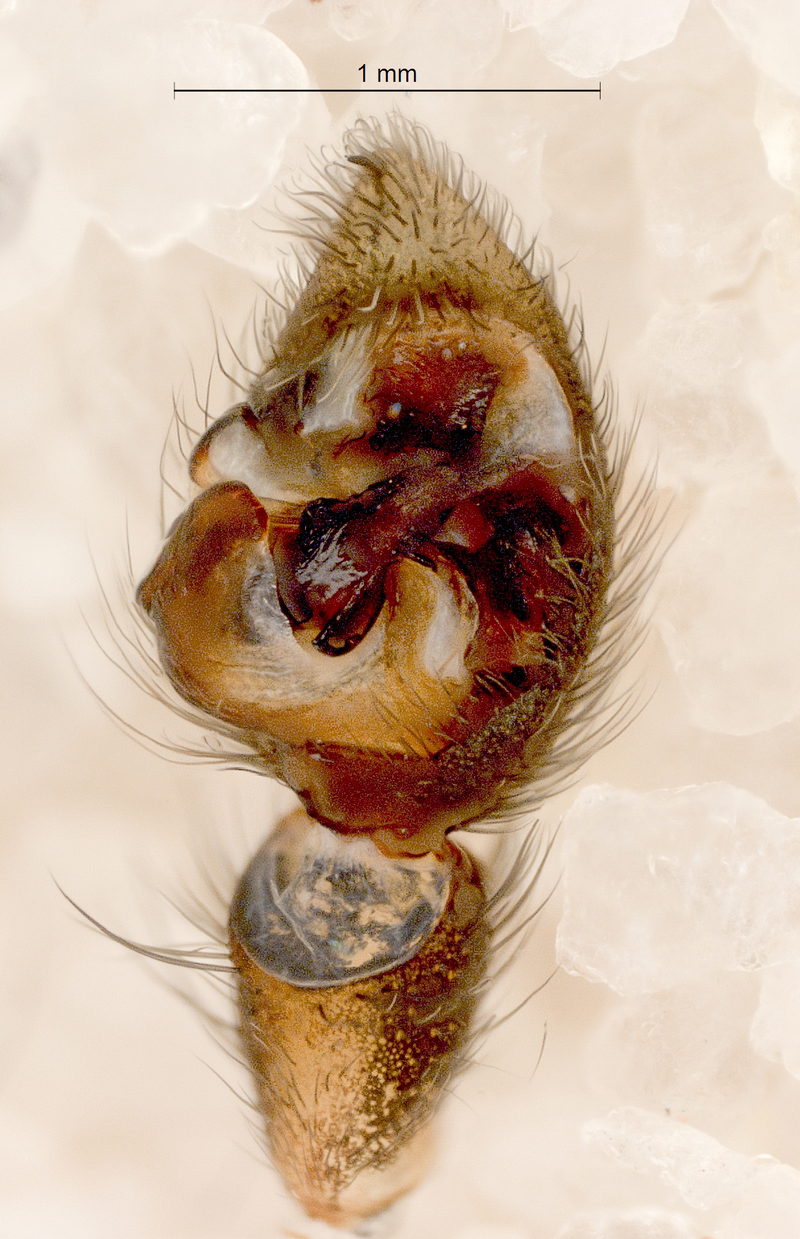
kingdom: Animalia
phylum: Arthropoda
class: Arachnida
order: Araneae
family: Lycosidae
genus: Pardosa
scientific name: Pardosa palustris
